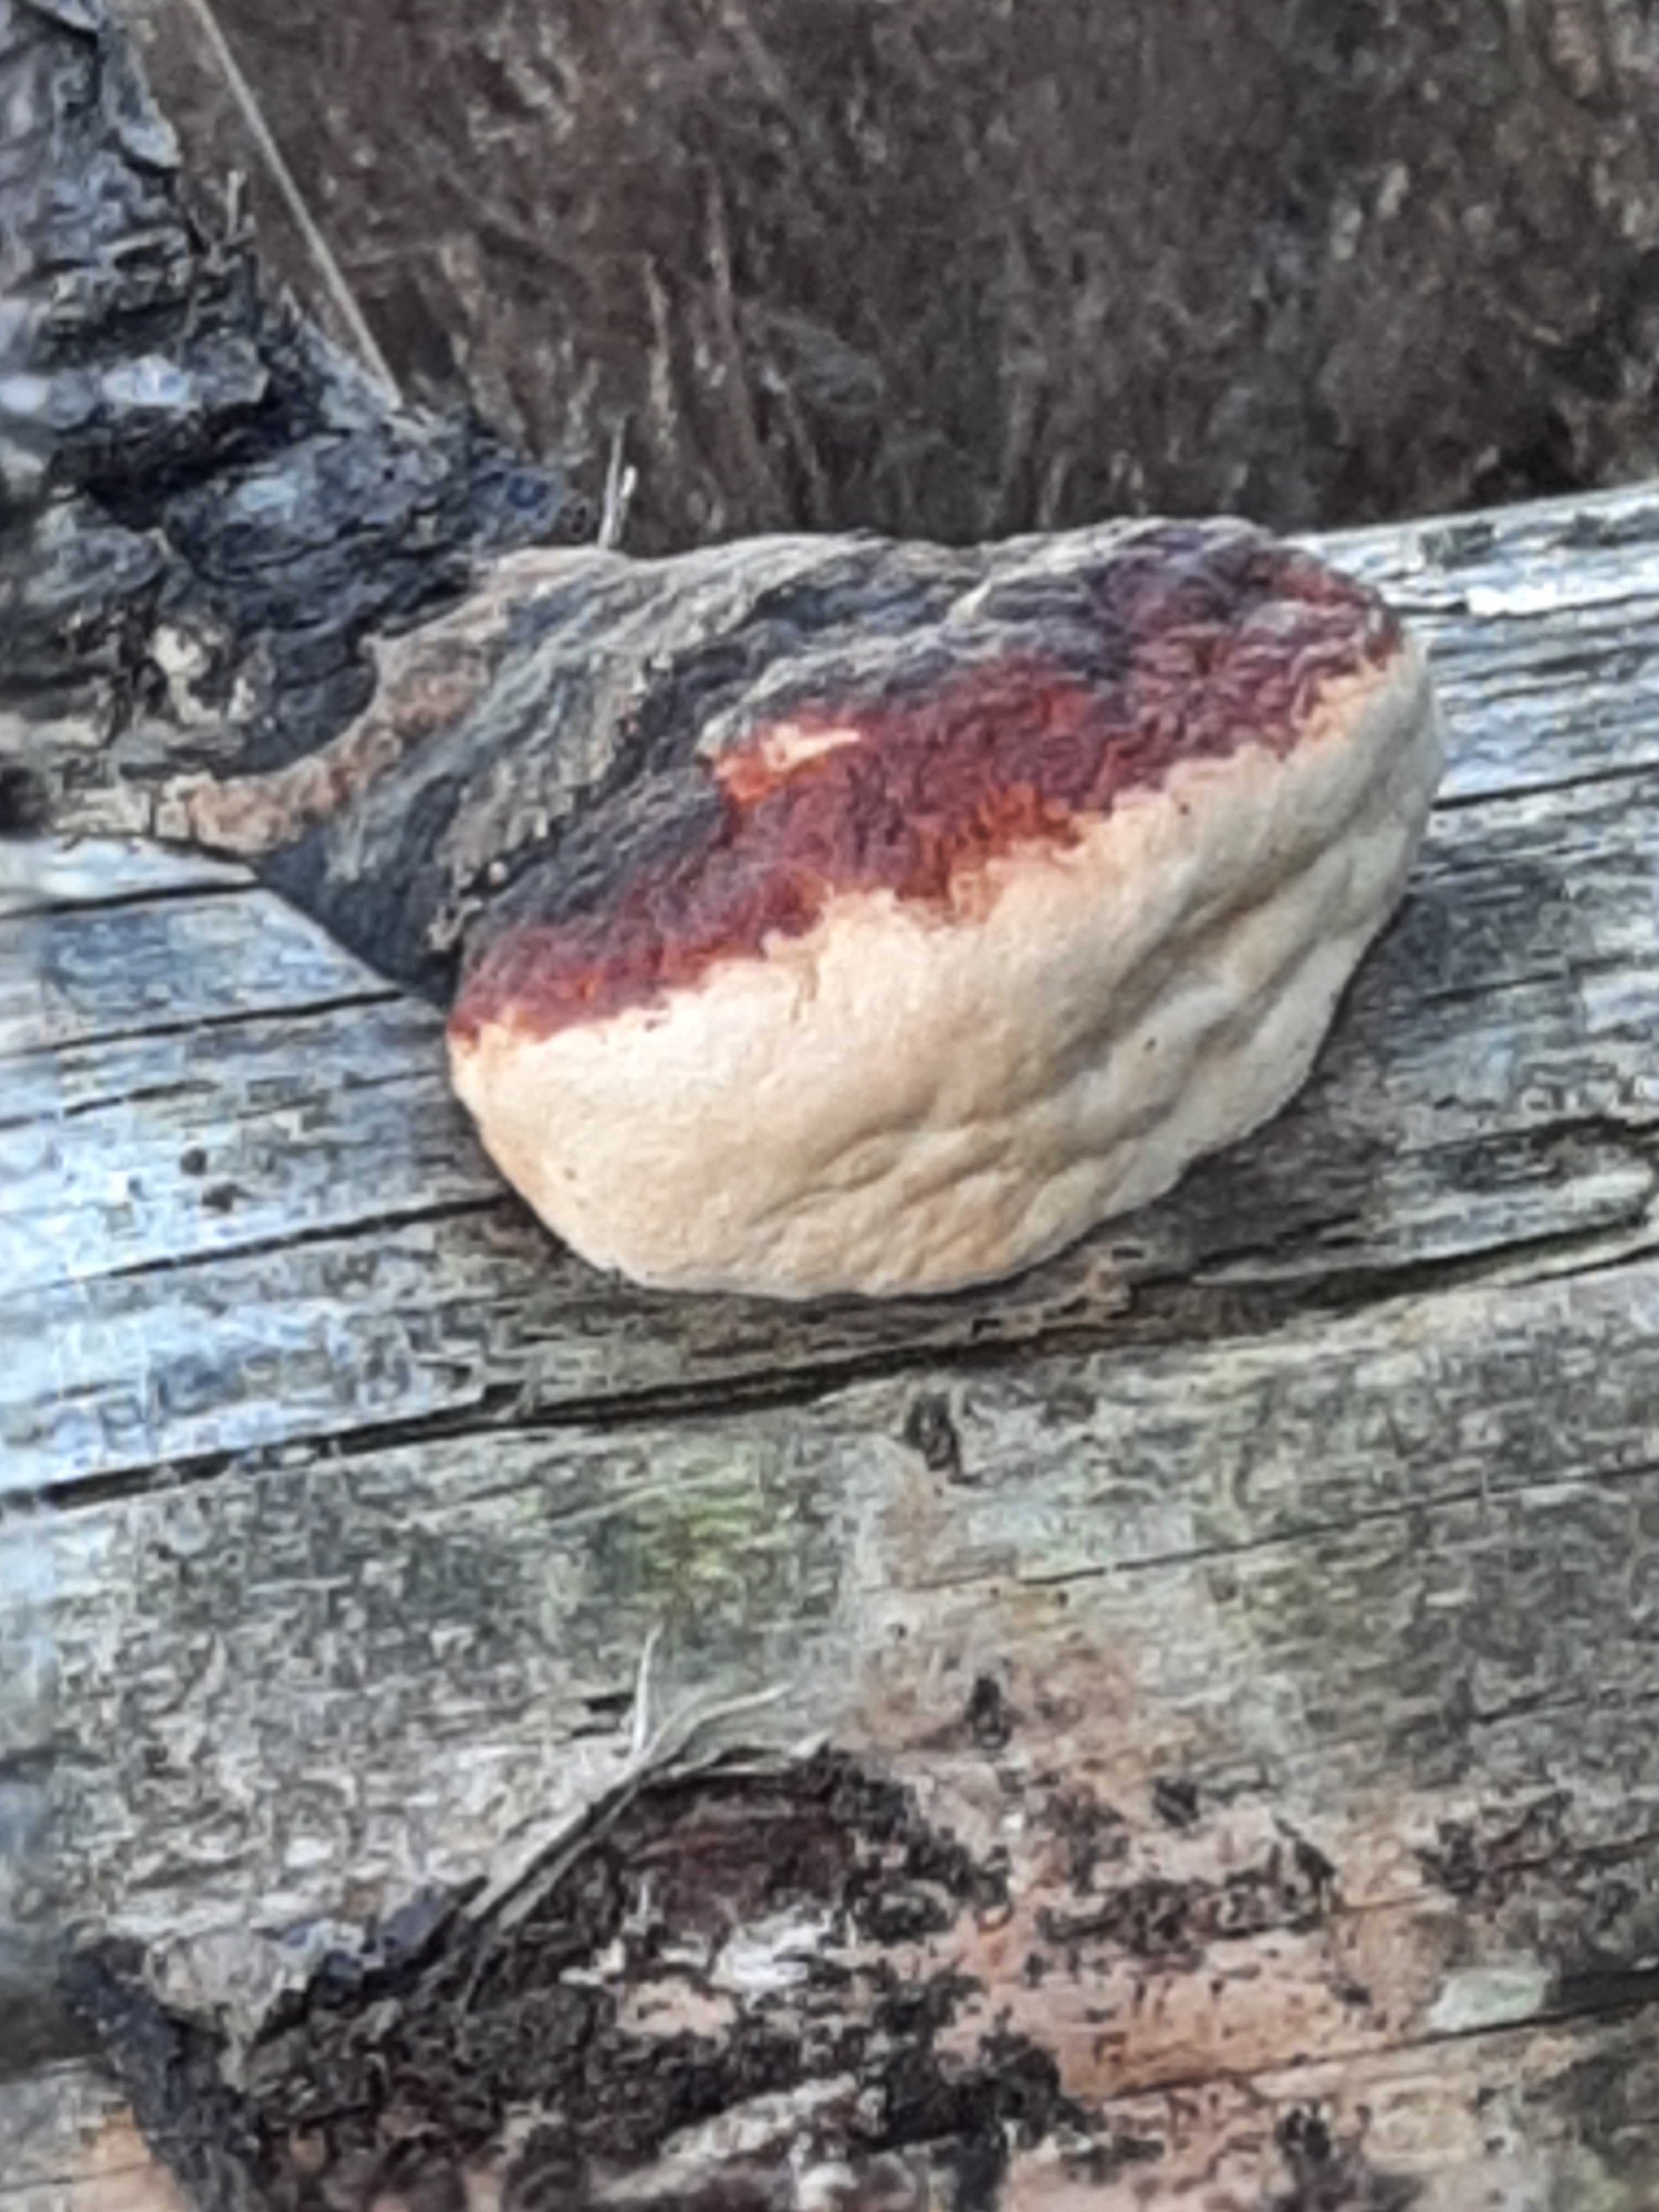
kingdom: Fungi
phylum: Basidiomycota
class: Agaricomycetes
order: Polyporales
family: Fomitopsidaceae
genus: Fomitopsis
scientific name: Fomitopsis pinicola
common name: randbæltet hovporesvamp
